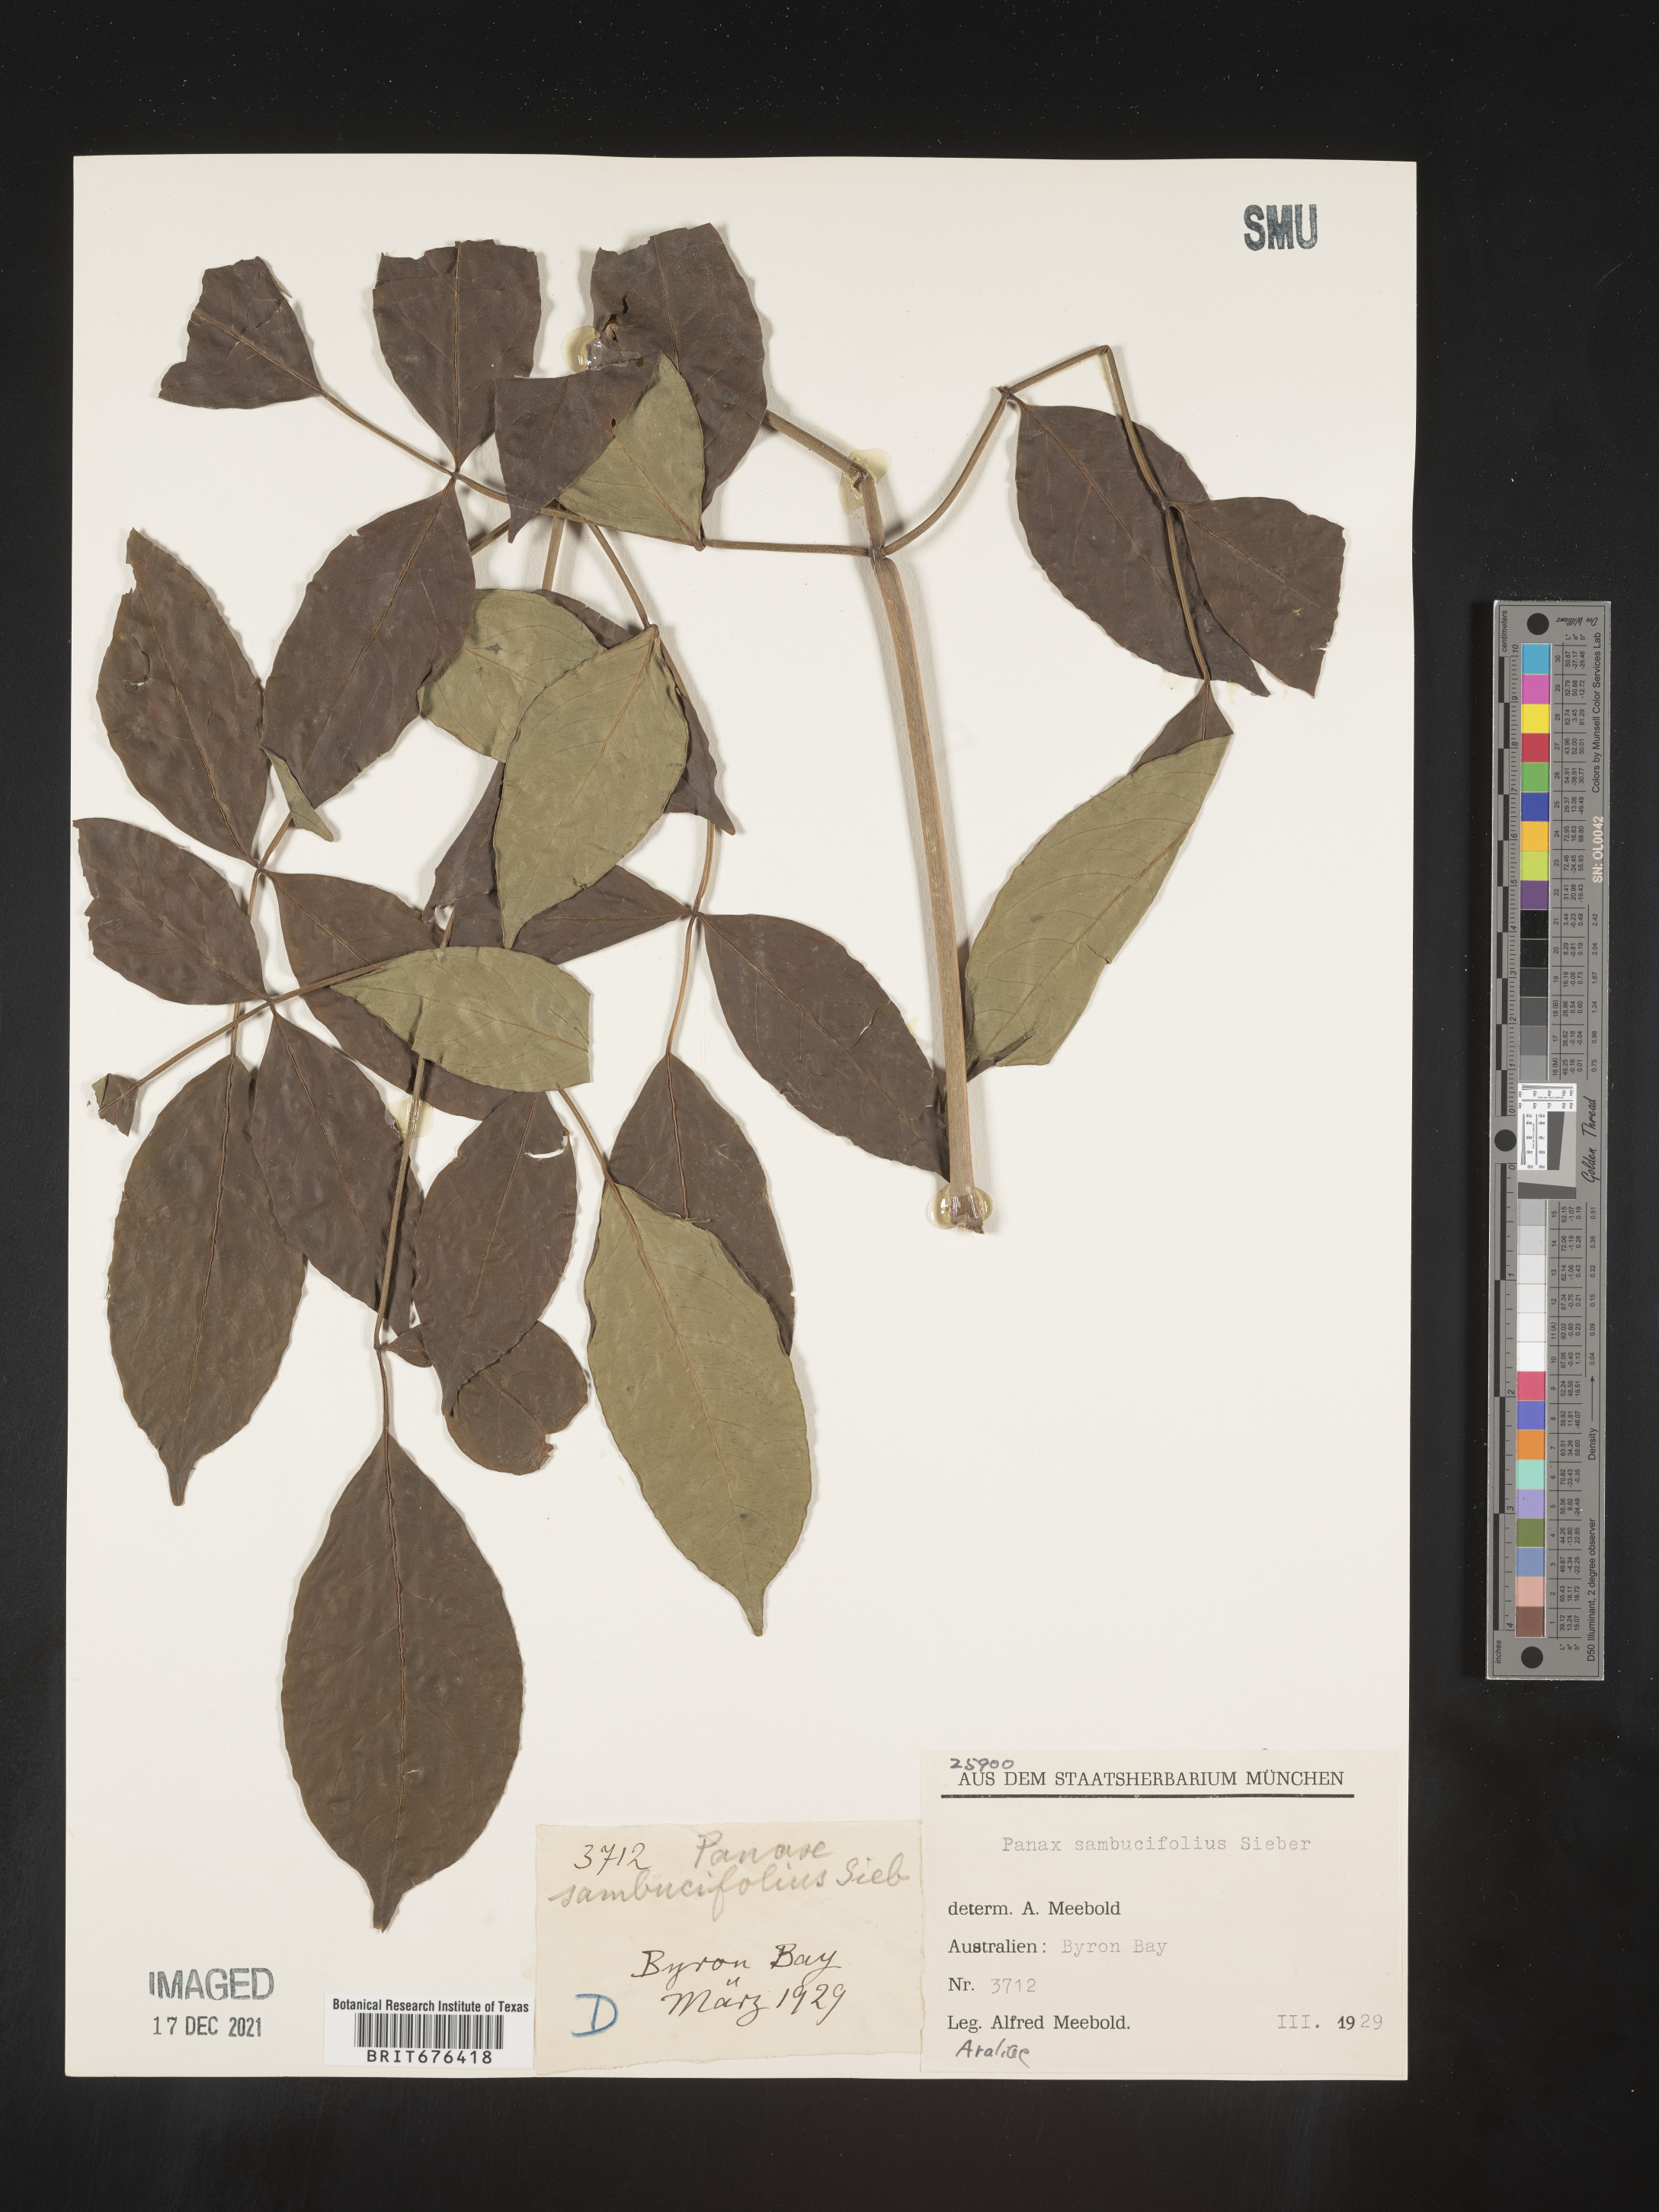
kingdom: Plantae
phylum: Tracheophyta
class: Magnoliopsida
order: Apiales
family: Araliaceae
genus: Polyscias
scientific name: Polyscias sambucifolia
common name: Elderberry-ash
